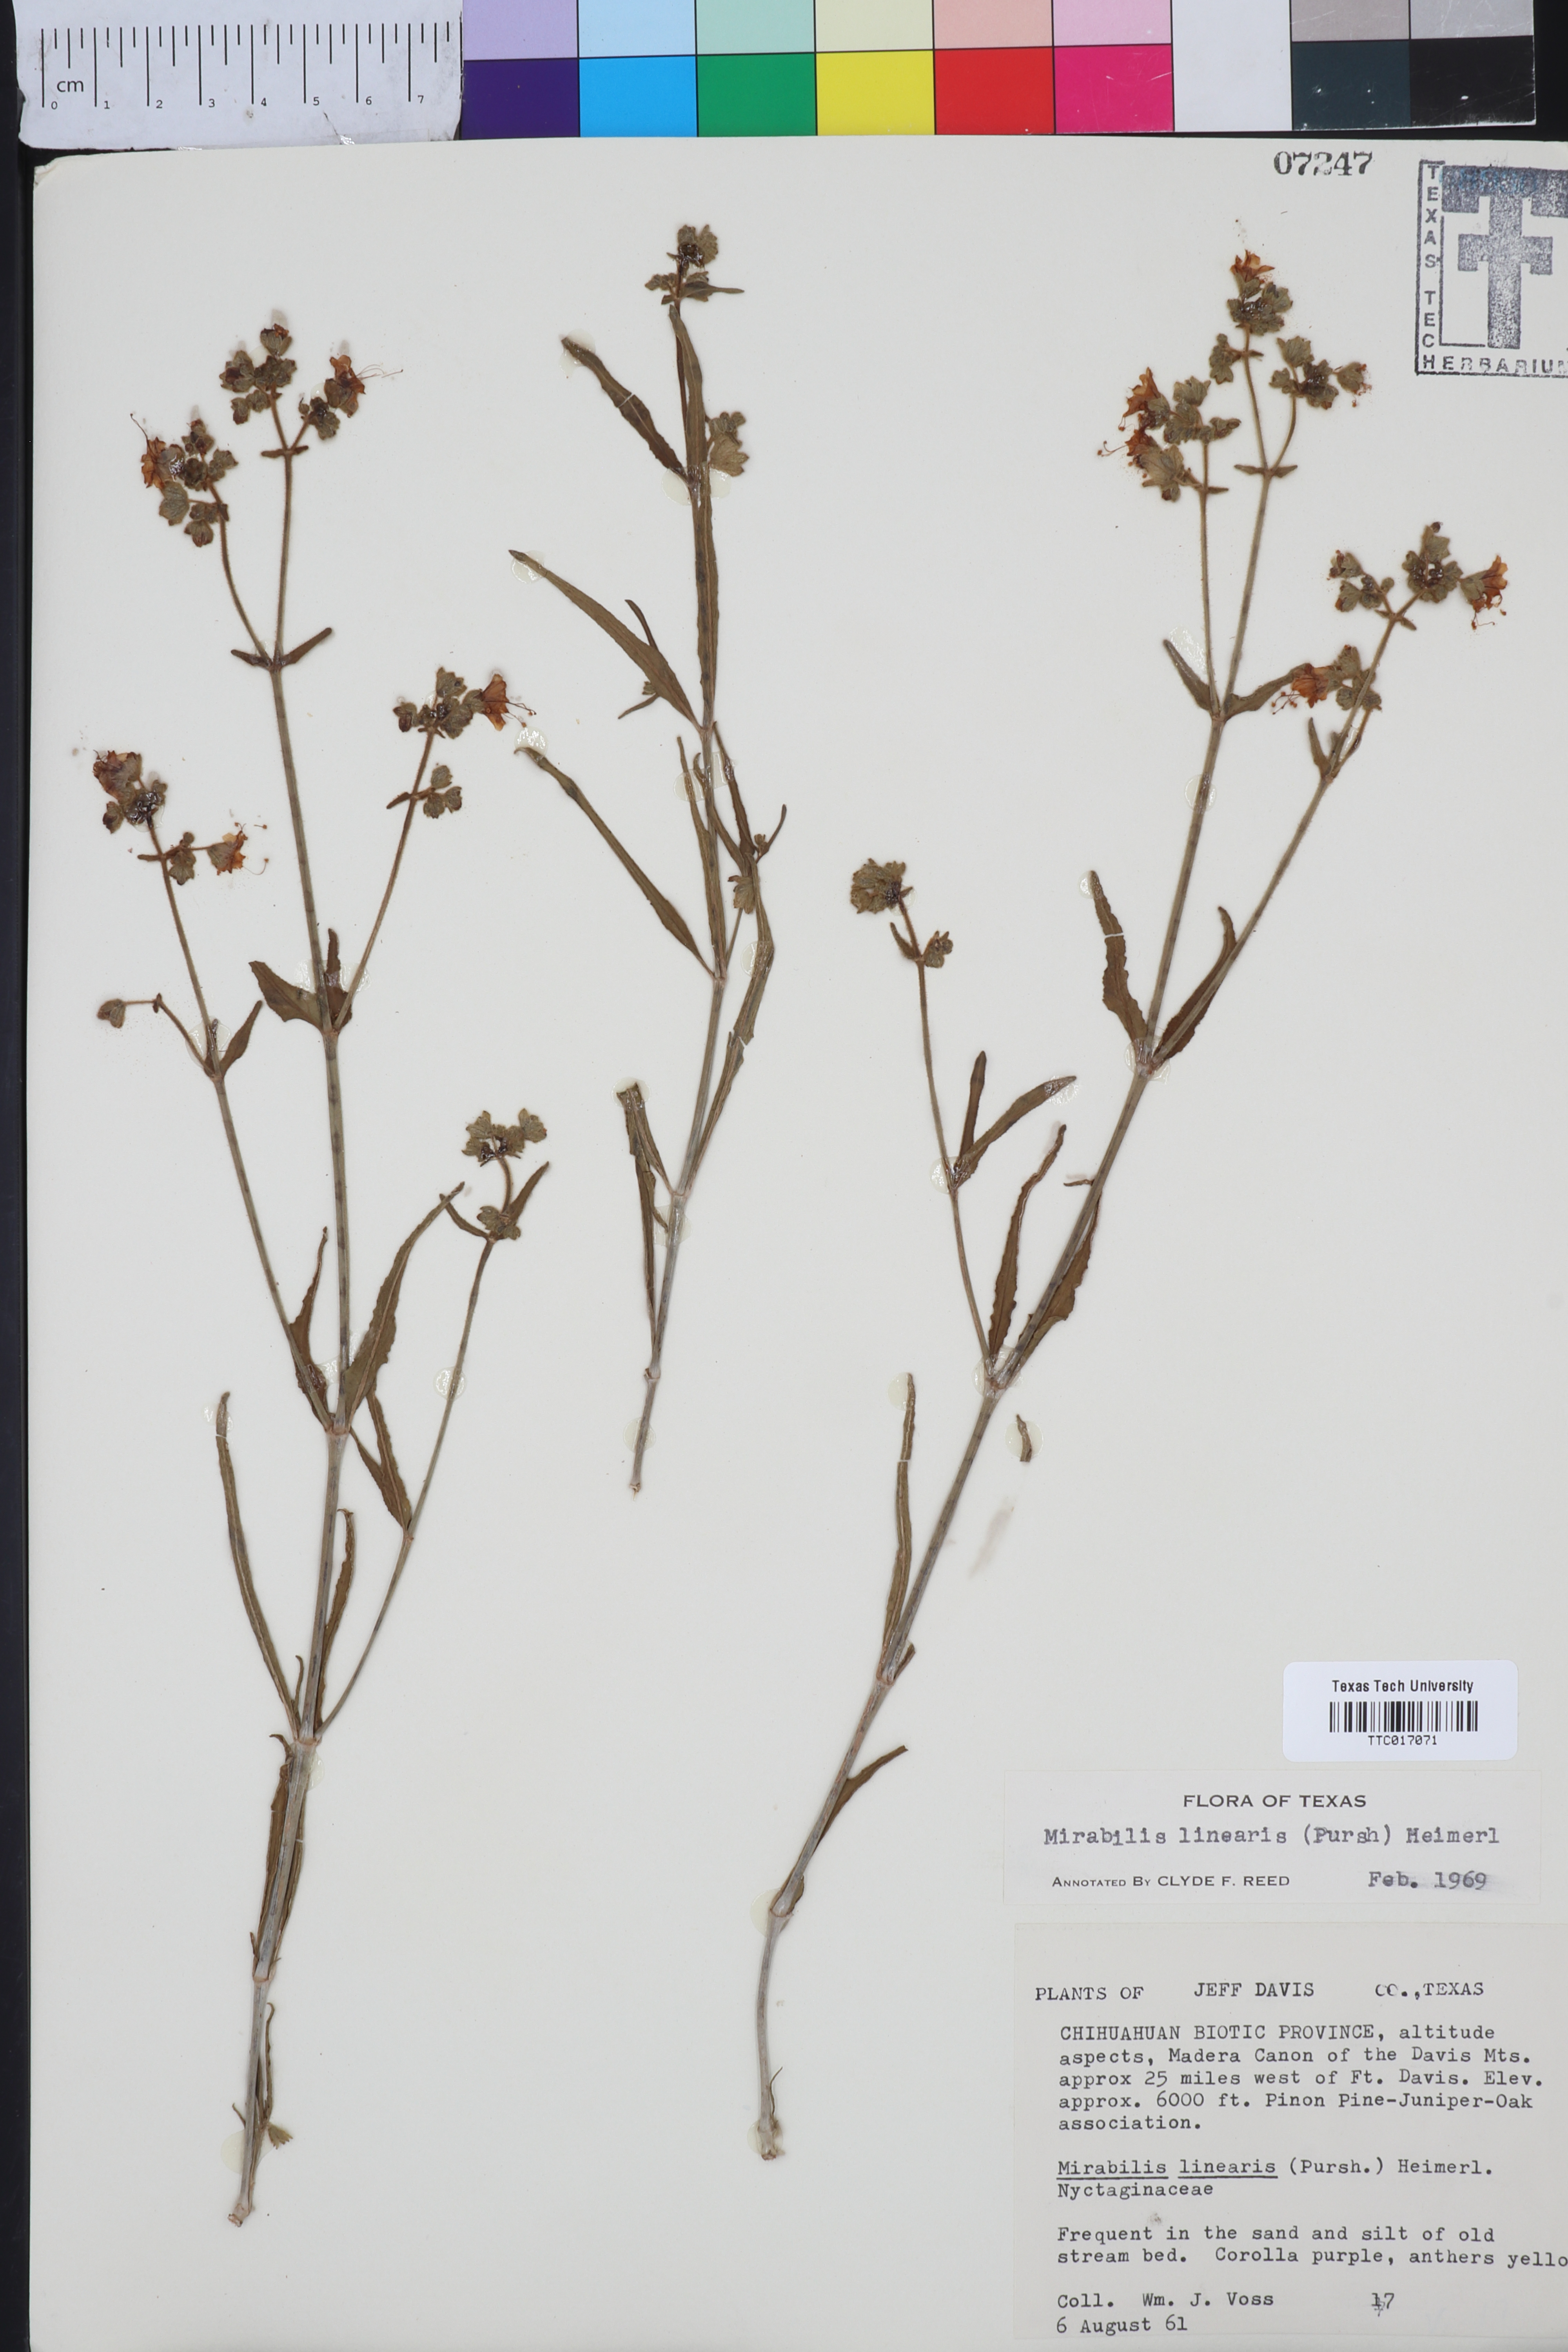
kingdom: Plantae
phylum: Tracheophyta
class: Magnoliopsida
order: Caryophyllales
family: Nyctaginaceae
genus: Mirabilis
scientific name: Mirabilis linearis
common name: Linear-leaved four-o'clock
